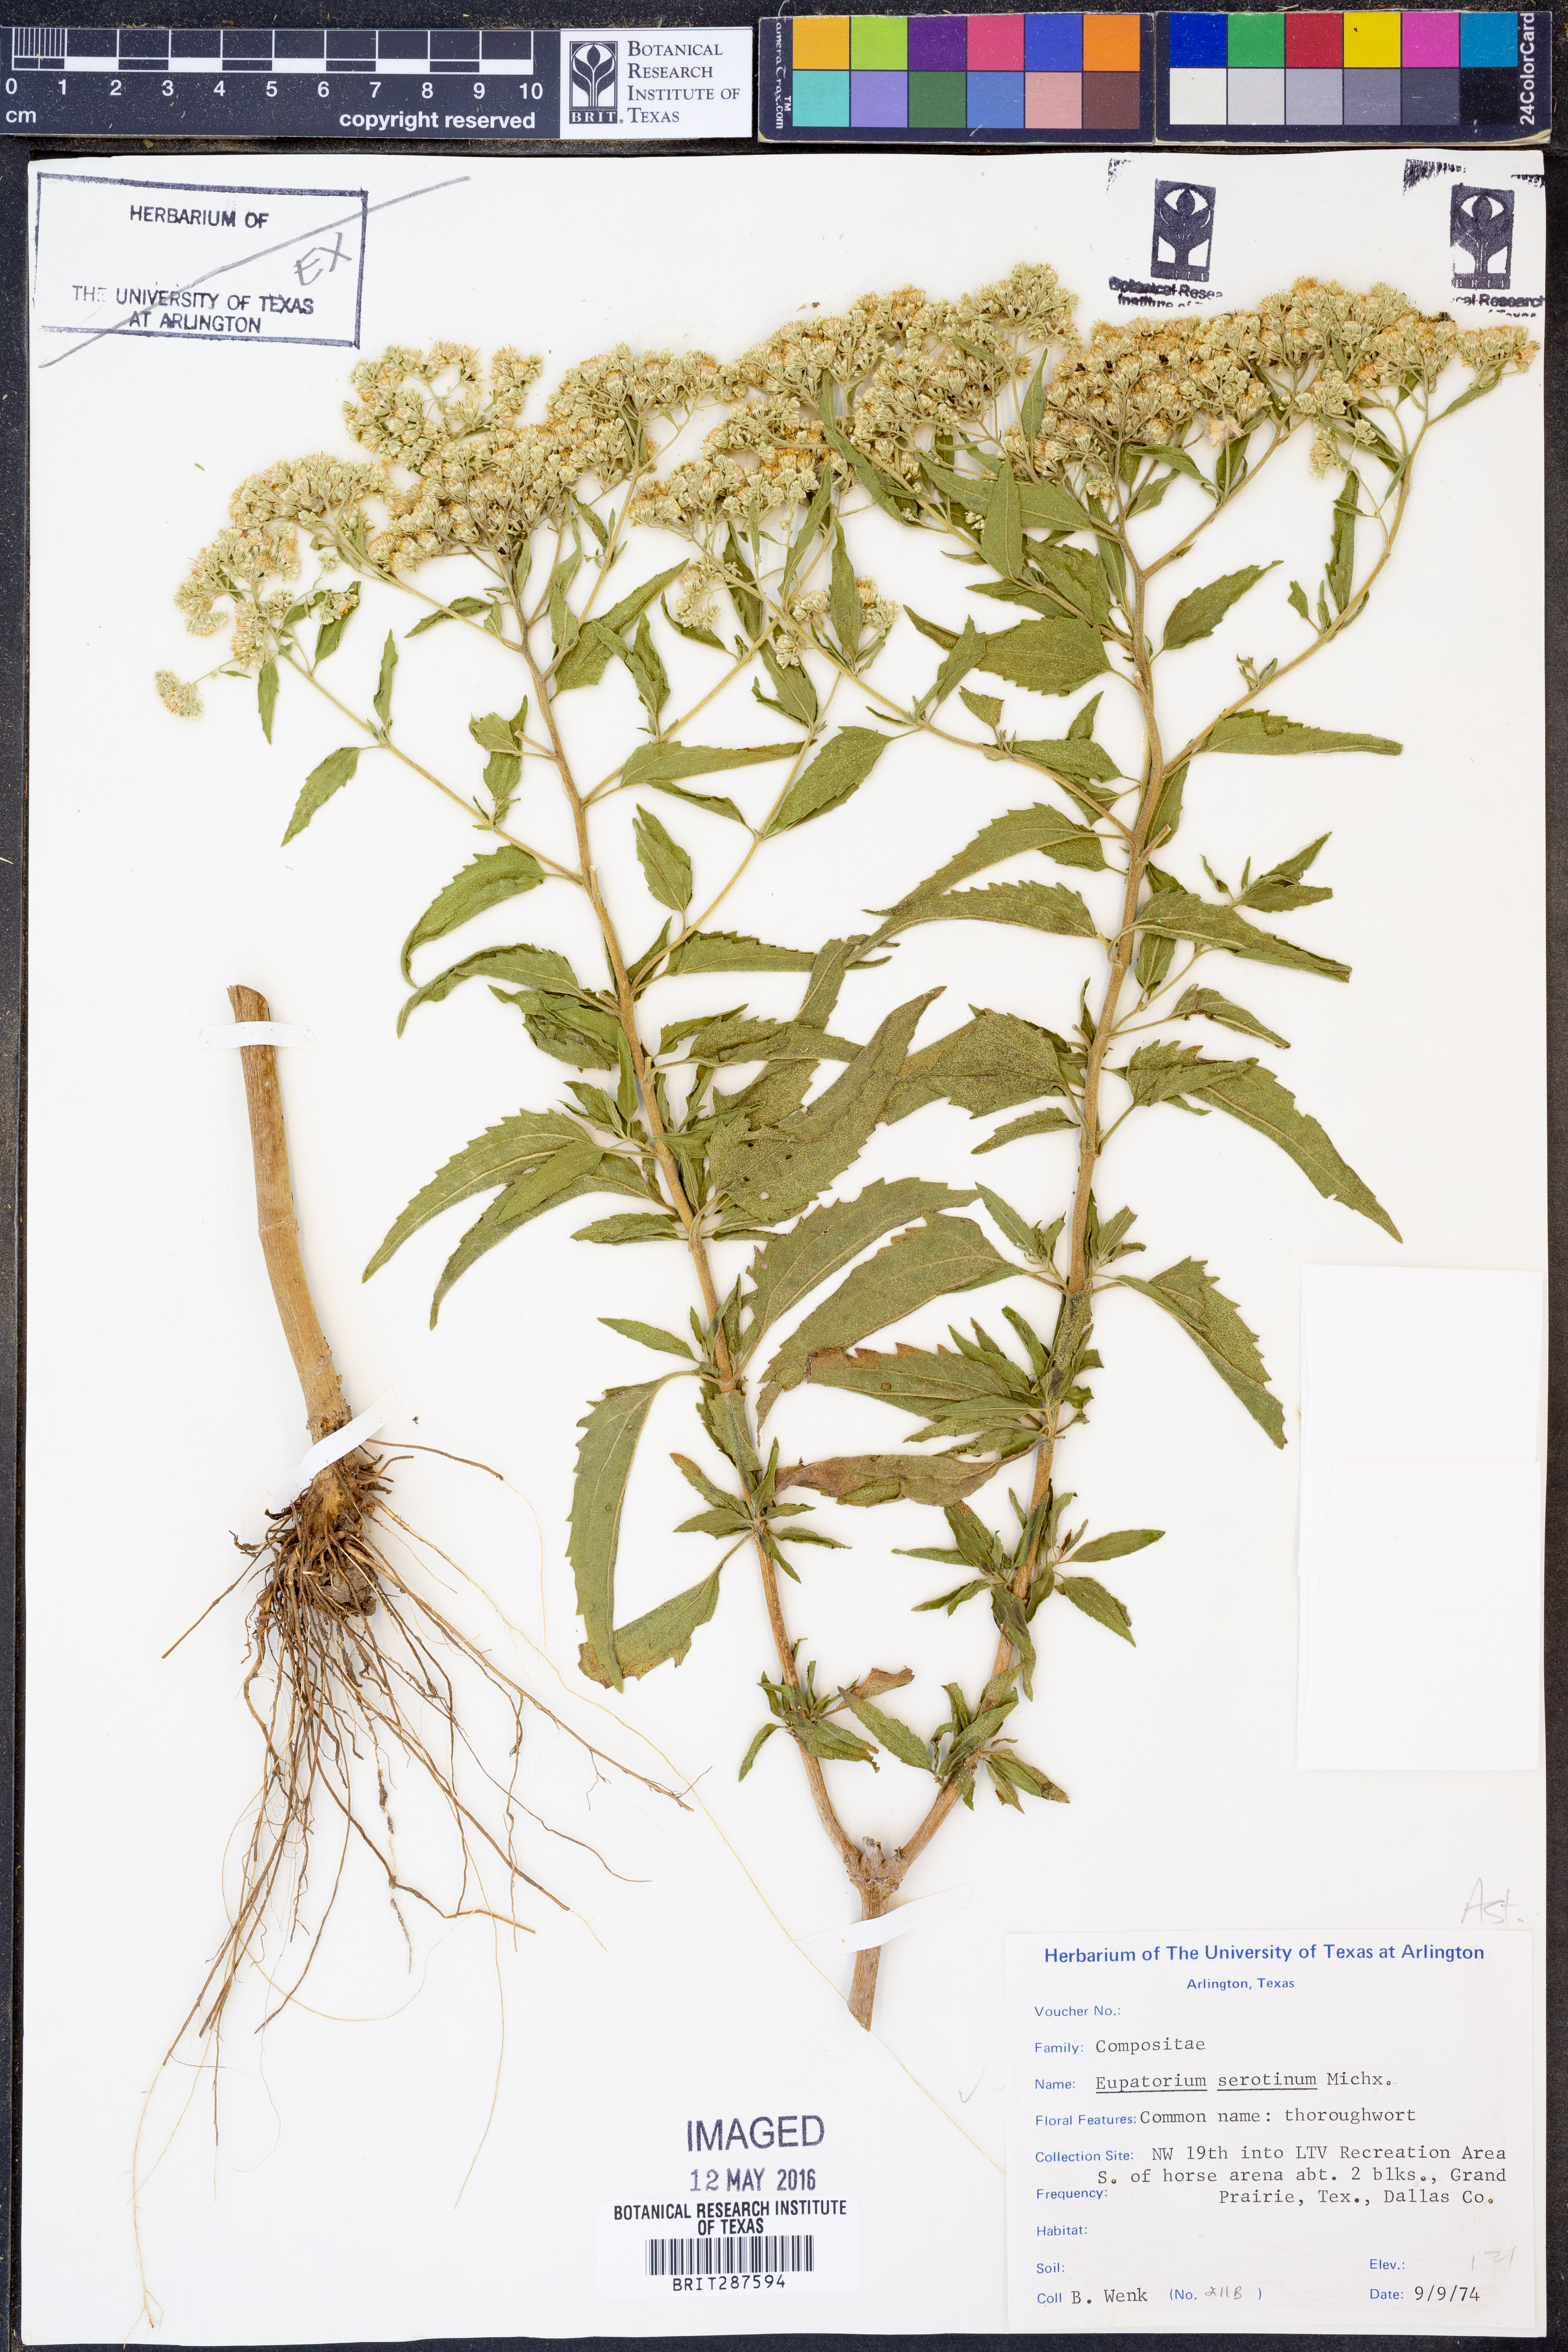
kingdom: Plantae
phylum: Tracheophyta
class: Magnoliopsida
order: Asterales
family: Asteraceae
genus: Eupatorium
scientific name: Eupatorium serotinum
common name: Late boneset
